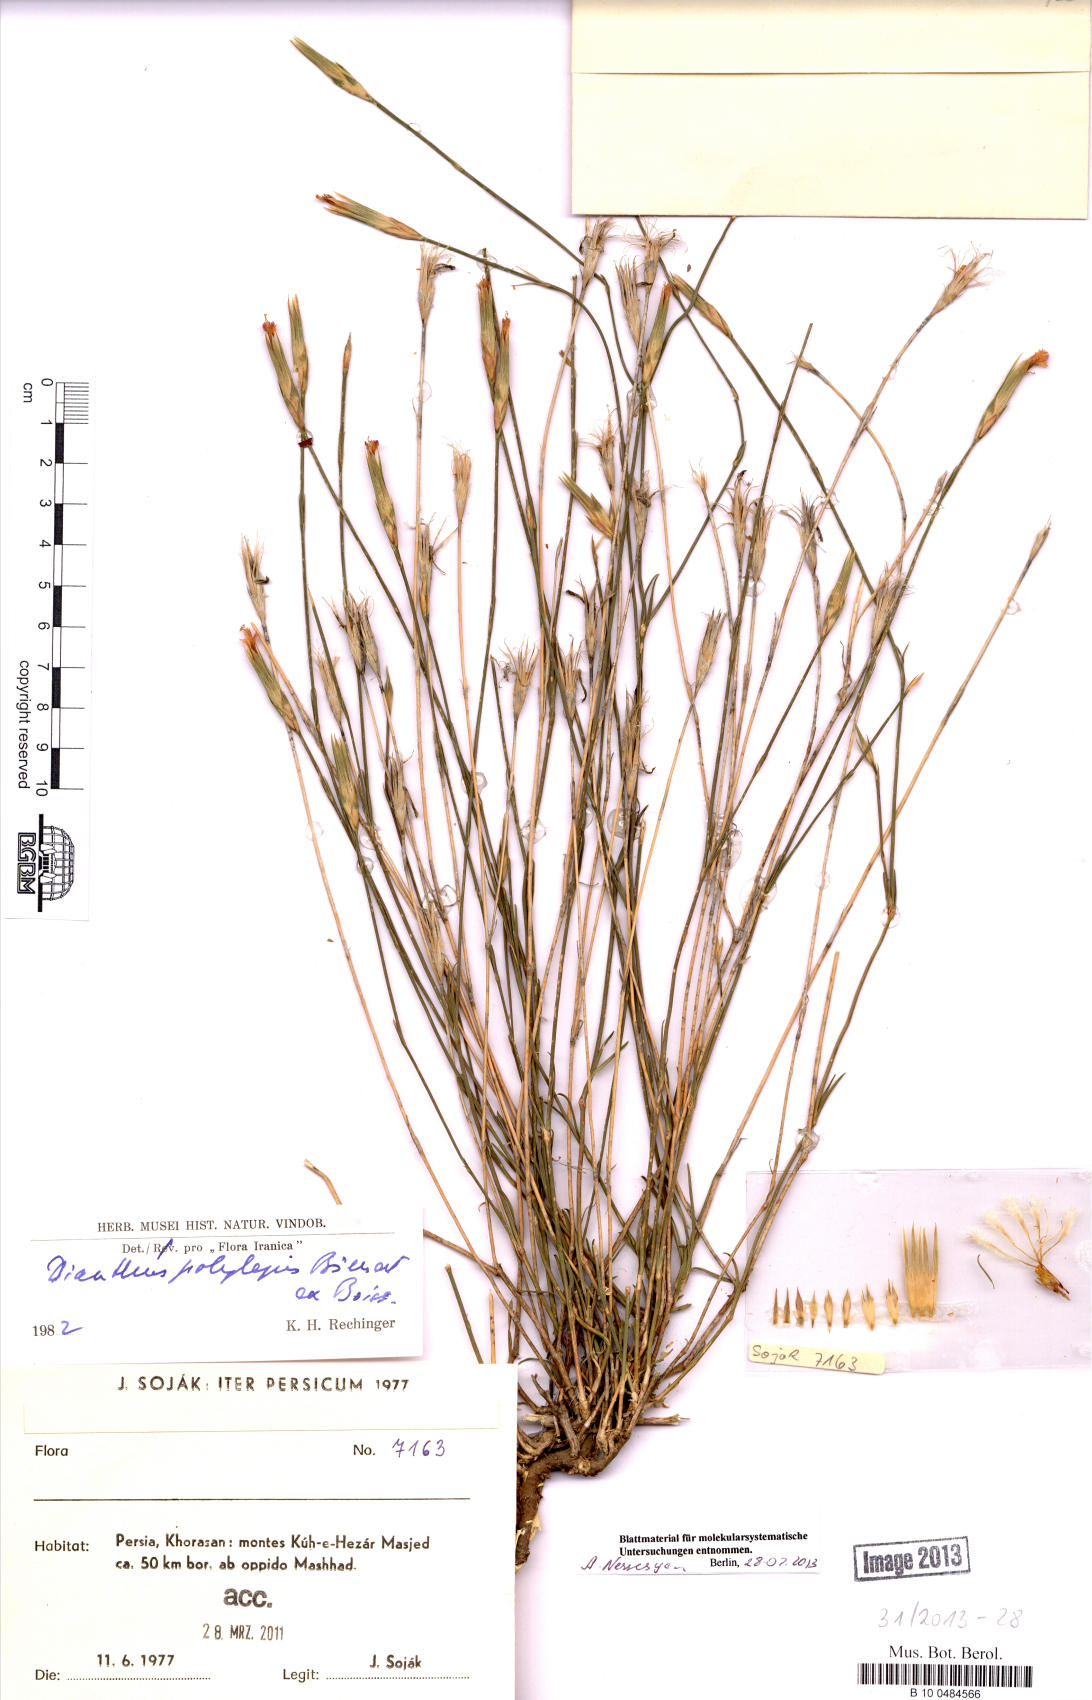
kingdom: Plantae
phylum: Tracheophyta
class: Magnoliopsida
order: Caryophyllales
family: Caryophyllaceae
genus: Dianthus
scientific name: Dianthus polylepis
